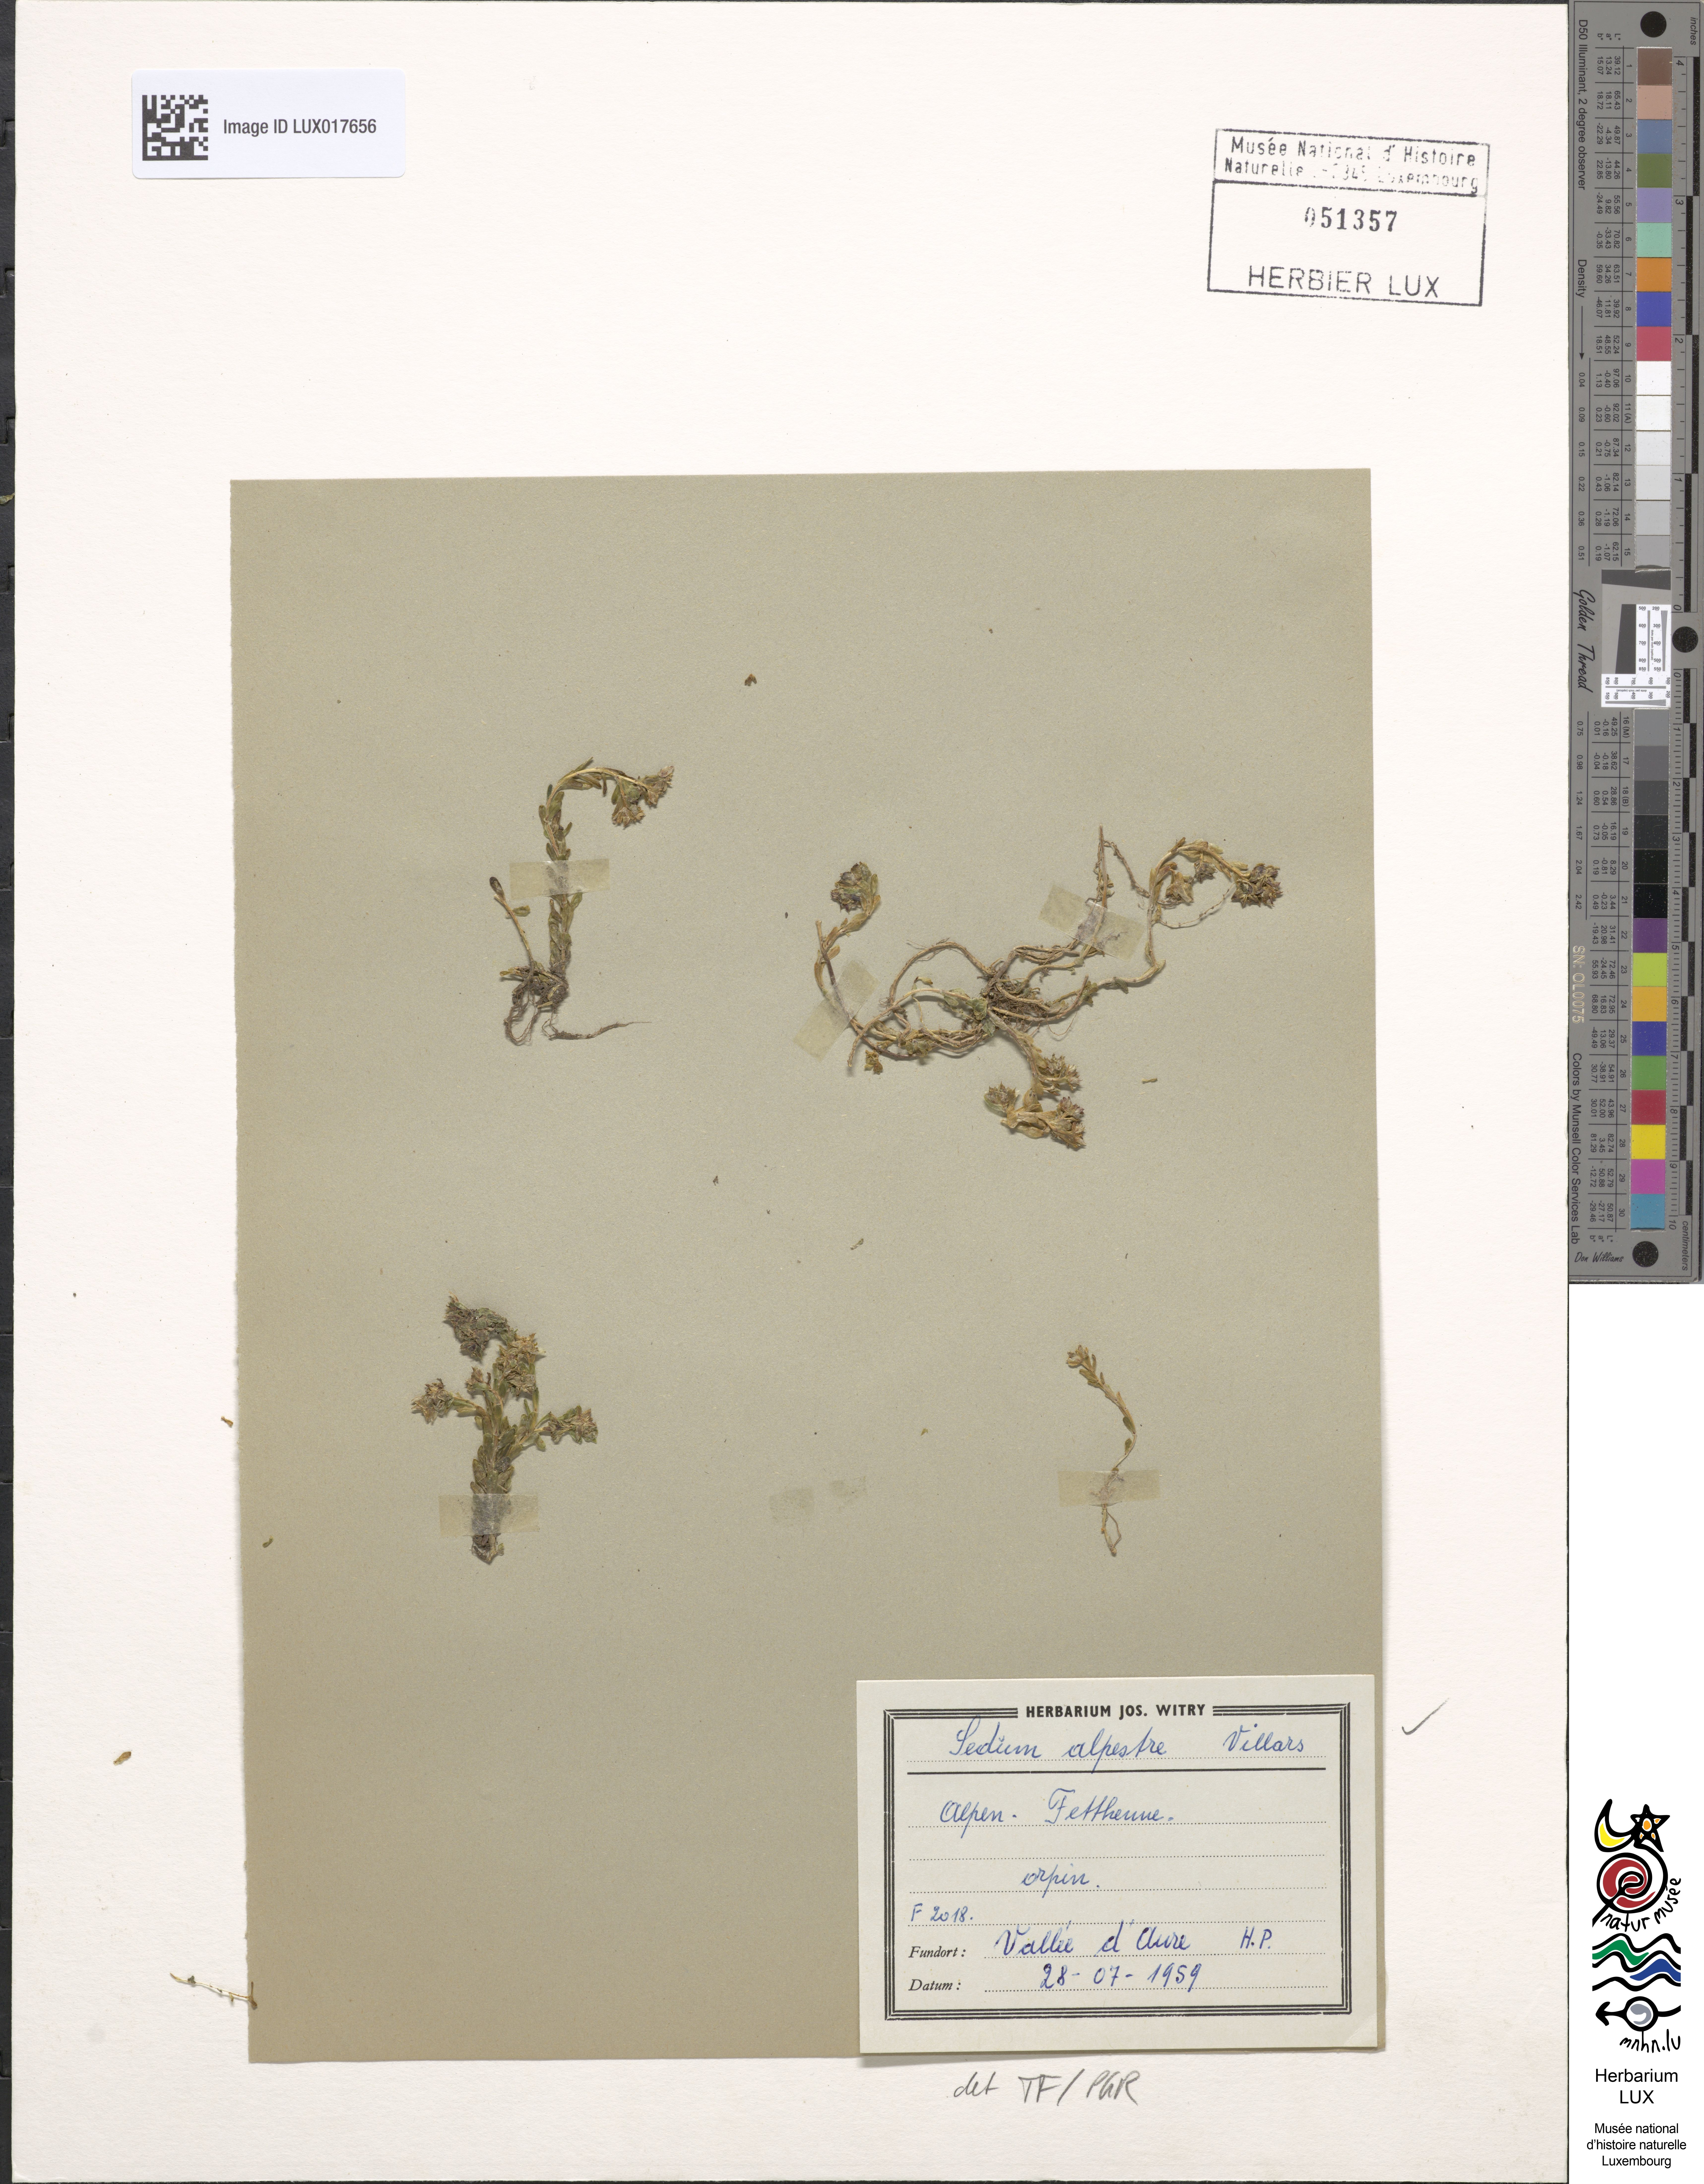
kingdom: Plantae
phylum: Tracheophyta
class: Magnoliopsida
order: Saxifragales
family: Crassulaceae
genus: Sedum
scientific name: Sedum alpestre
